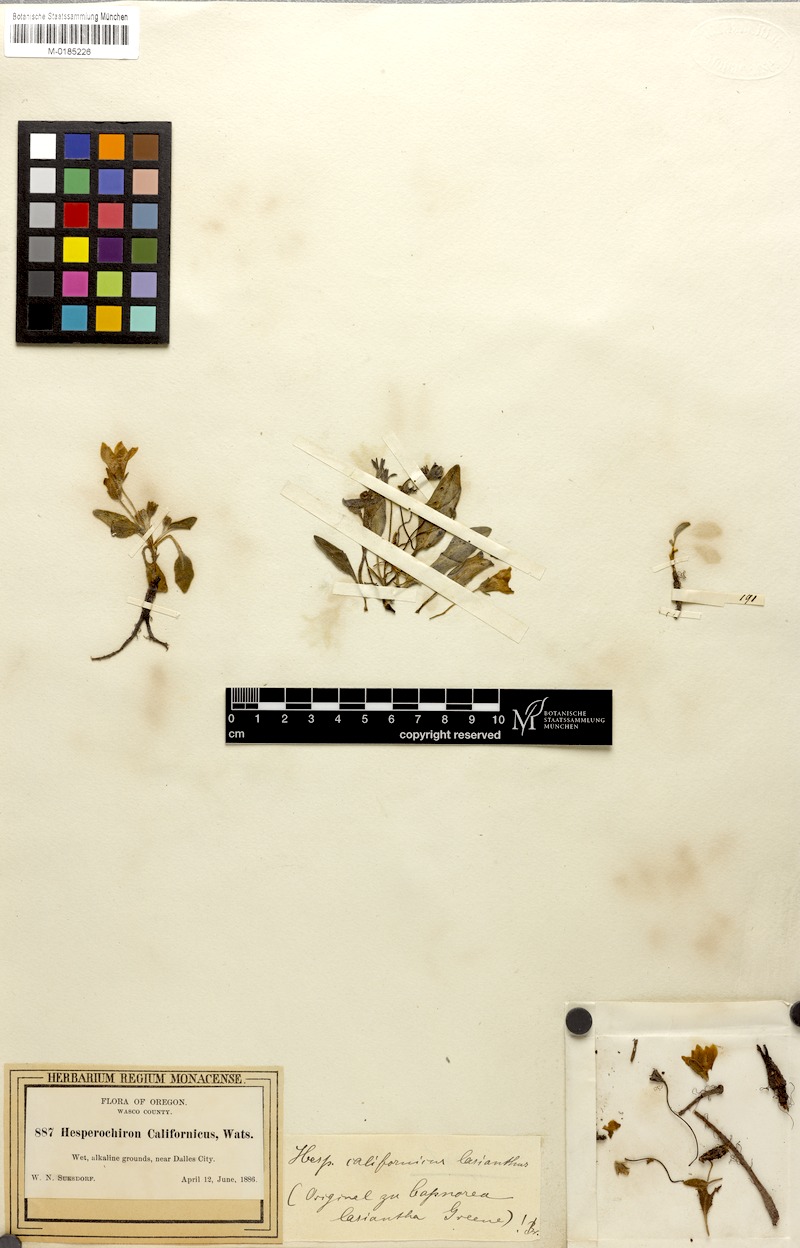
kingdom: Plantae
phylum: Tracheophyta
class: Magnoliopsida
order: Boraginales
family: Hydrophyllaceae
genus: Hesperochiron
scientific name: Hesperochiron californicus
